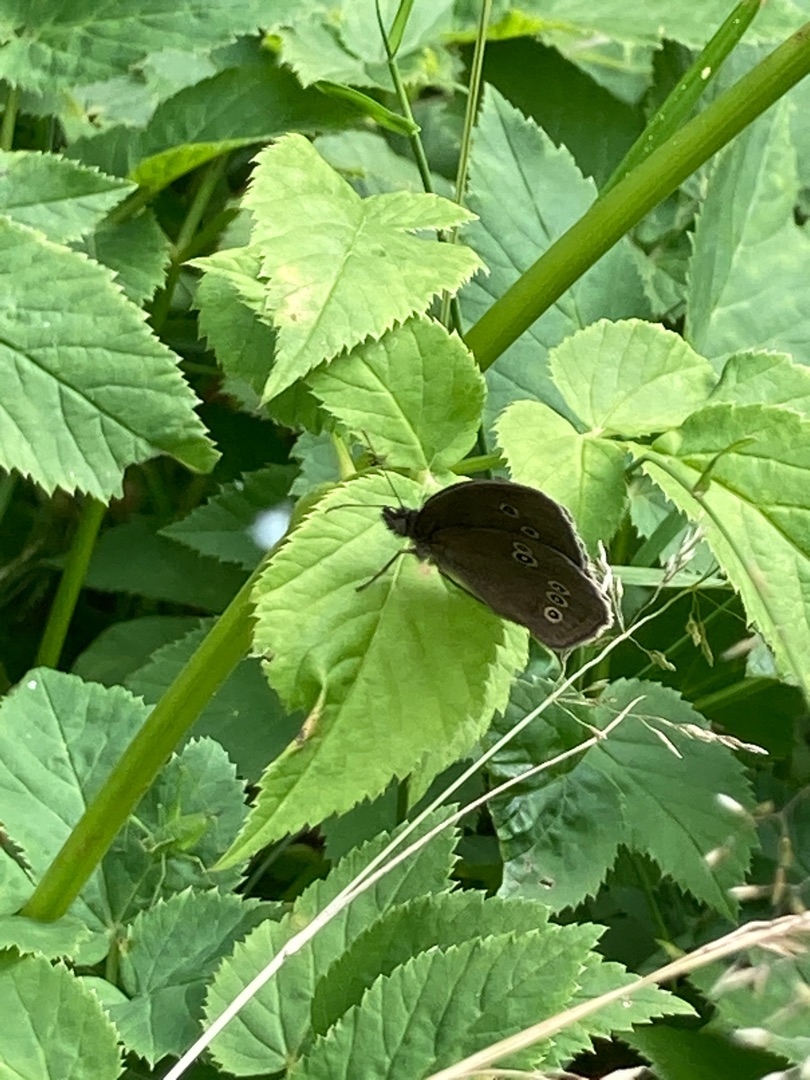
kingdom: Animalia
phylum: Arthropoda
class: Insecta
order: Lepidoptera
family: Nymphalidae
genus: Aphantopus
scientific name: Aphantopus hyperantus
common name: Engrandøje
